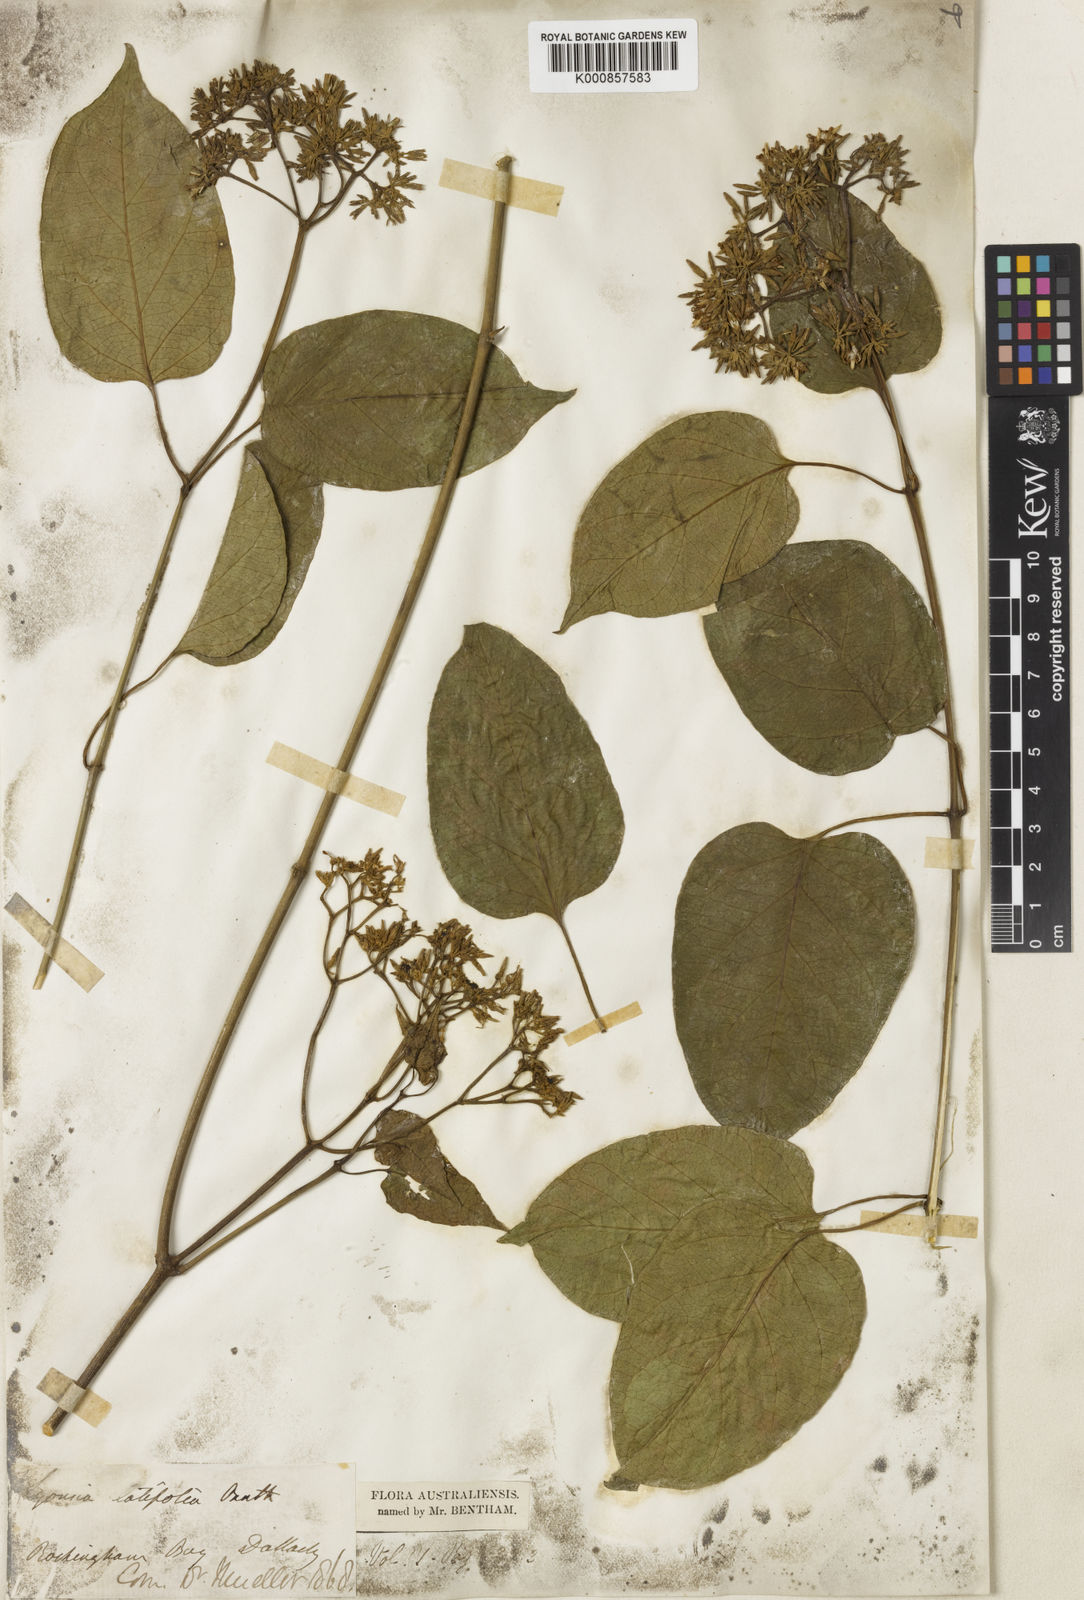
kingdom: Plantae
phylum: Tracheophyta
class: Magnoliopsida
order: Gentianales
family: Apocynaceae
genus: Parsonsia
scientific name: Parsonsia latifolia
